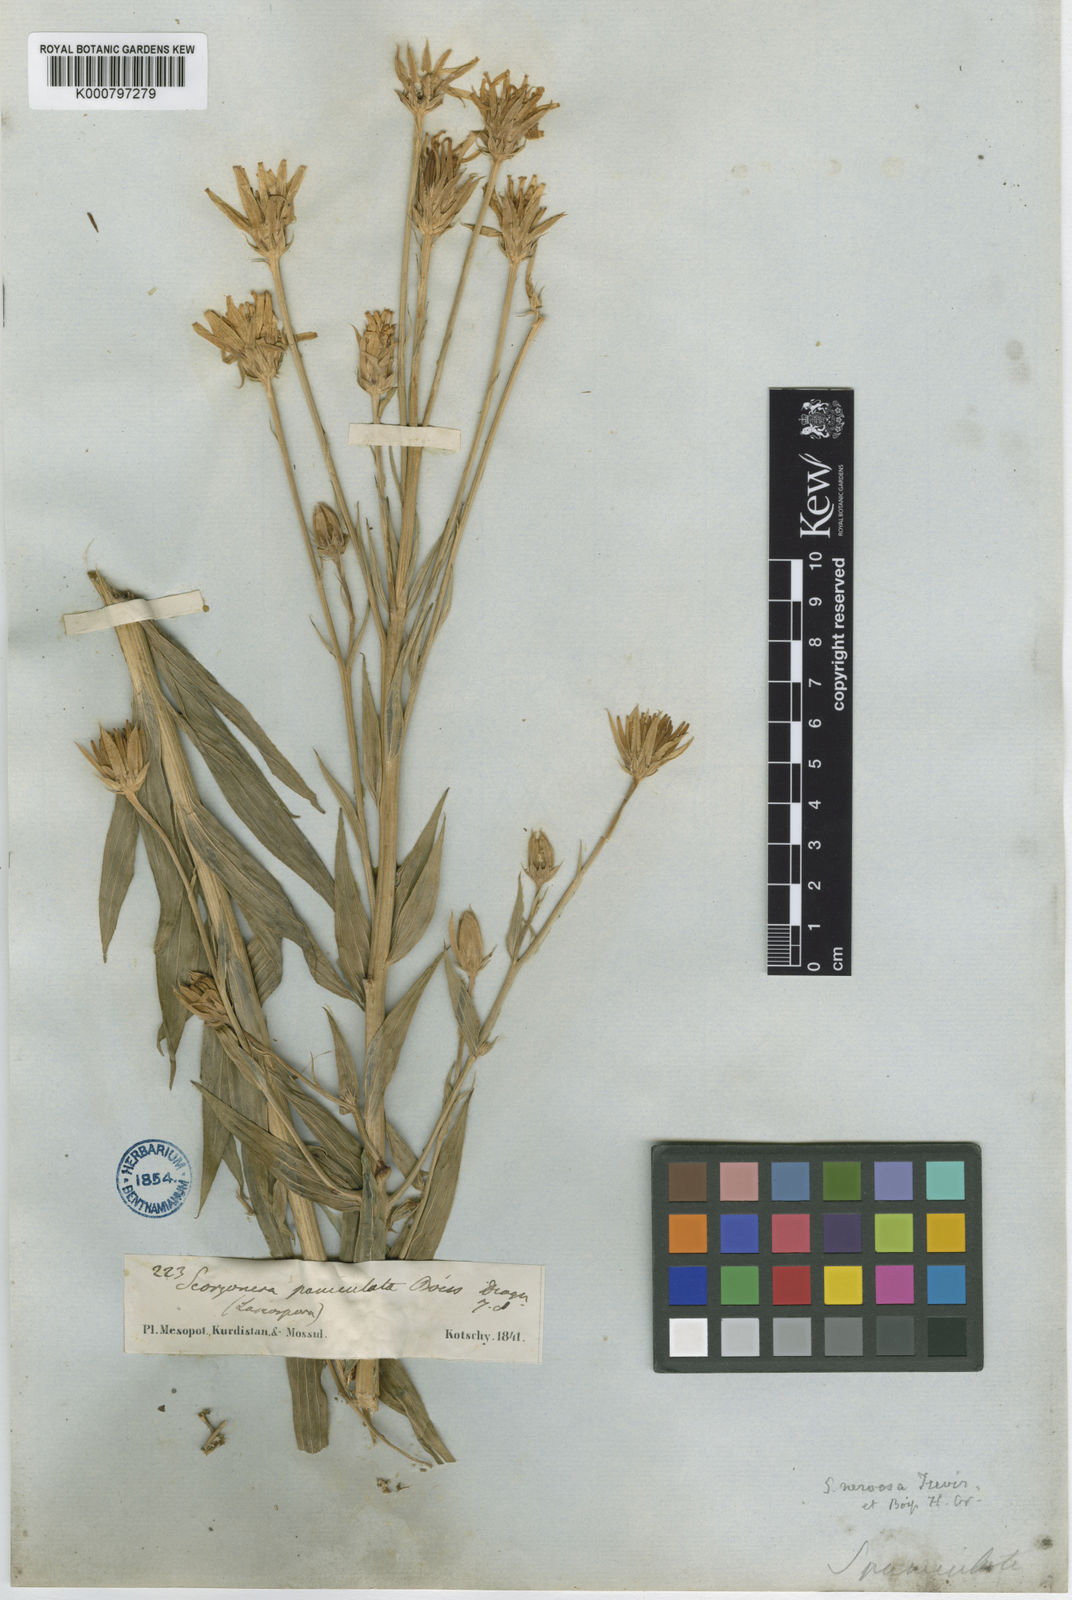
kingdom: Plantae
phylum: Tracheophyta
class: Magnoliopsida
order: Asterales
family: Asteraceae
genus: Guneria
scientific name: Guneria latifolia
